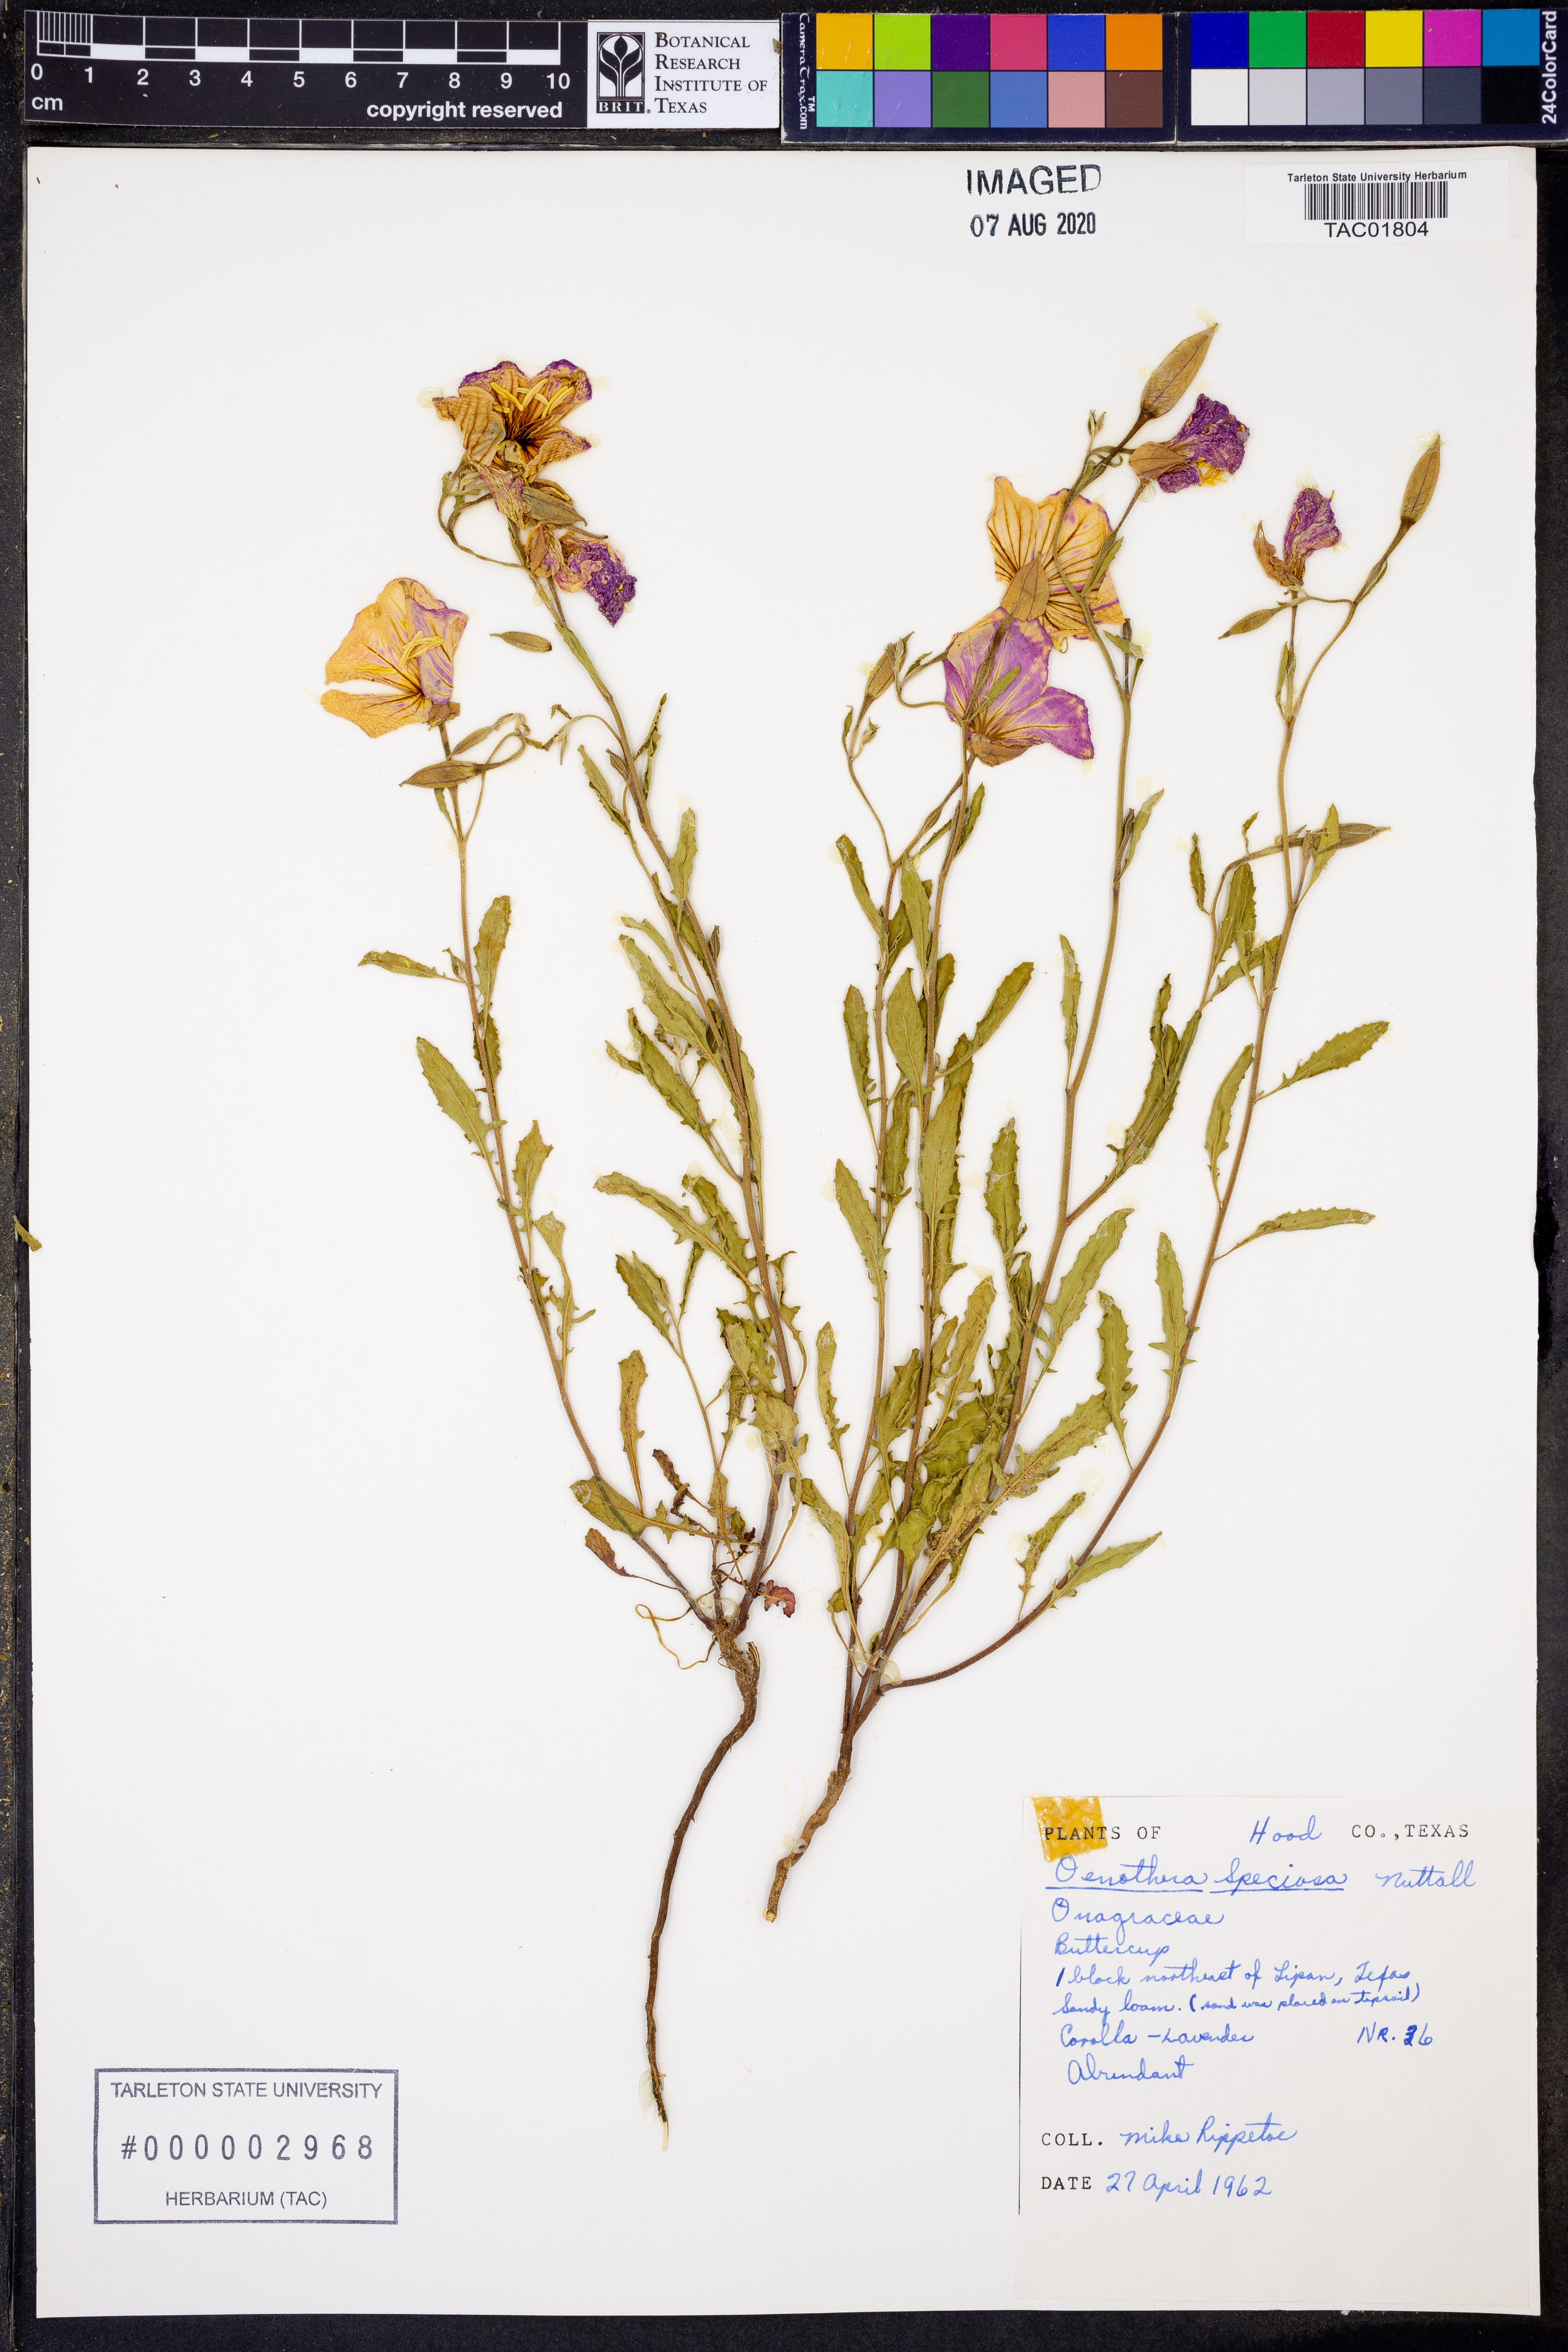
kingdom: Plantae
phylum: Tracheophyta
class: Magnoliopsida
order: Myrtales
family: Onagraceae
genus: Oenothera
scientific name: Oenothera speciosa
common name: White evening-primrose
